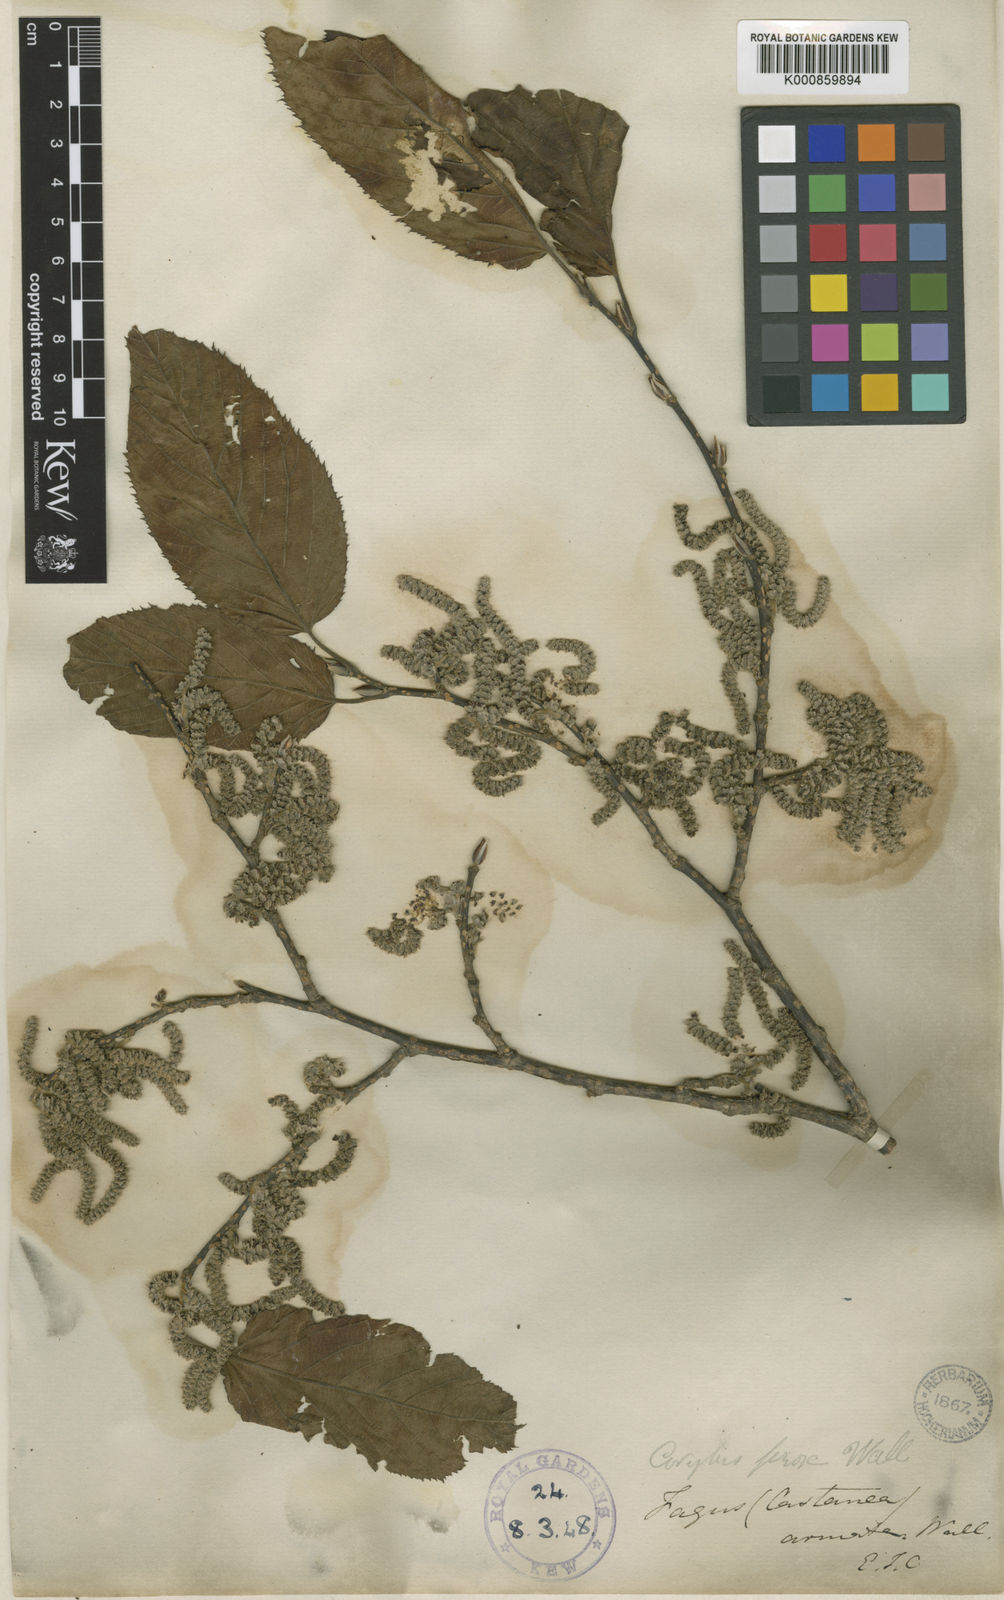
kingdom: Plantae
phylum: Tracheophyta
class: Magnoliopsida
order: Fagales
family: Betulaceae
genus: Corylus
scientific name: Corylus ferox
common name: Himalayan hazel
